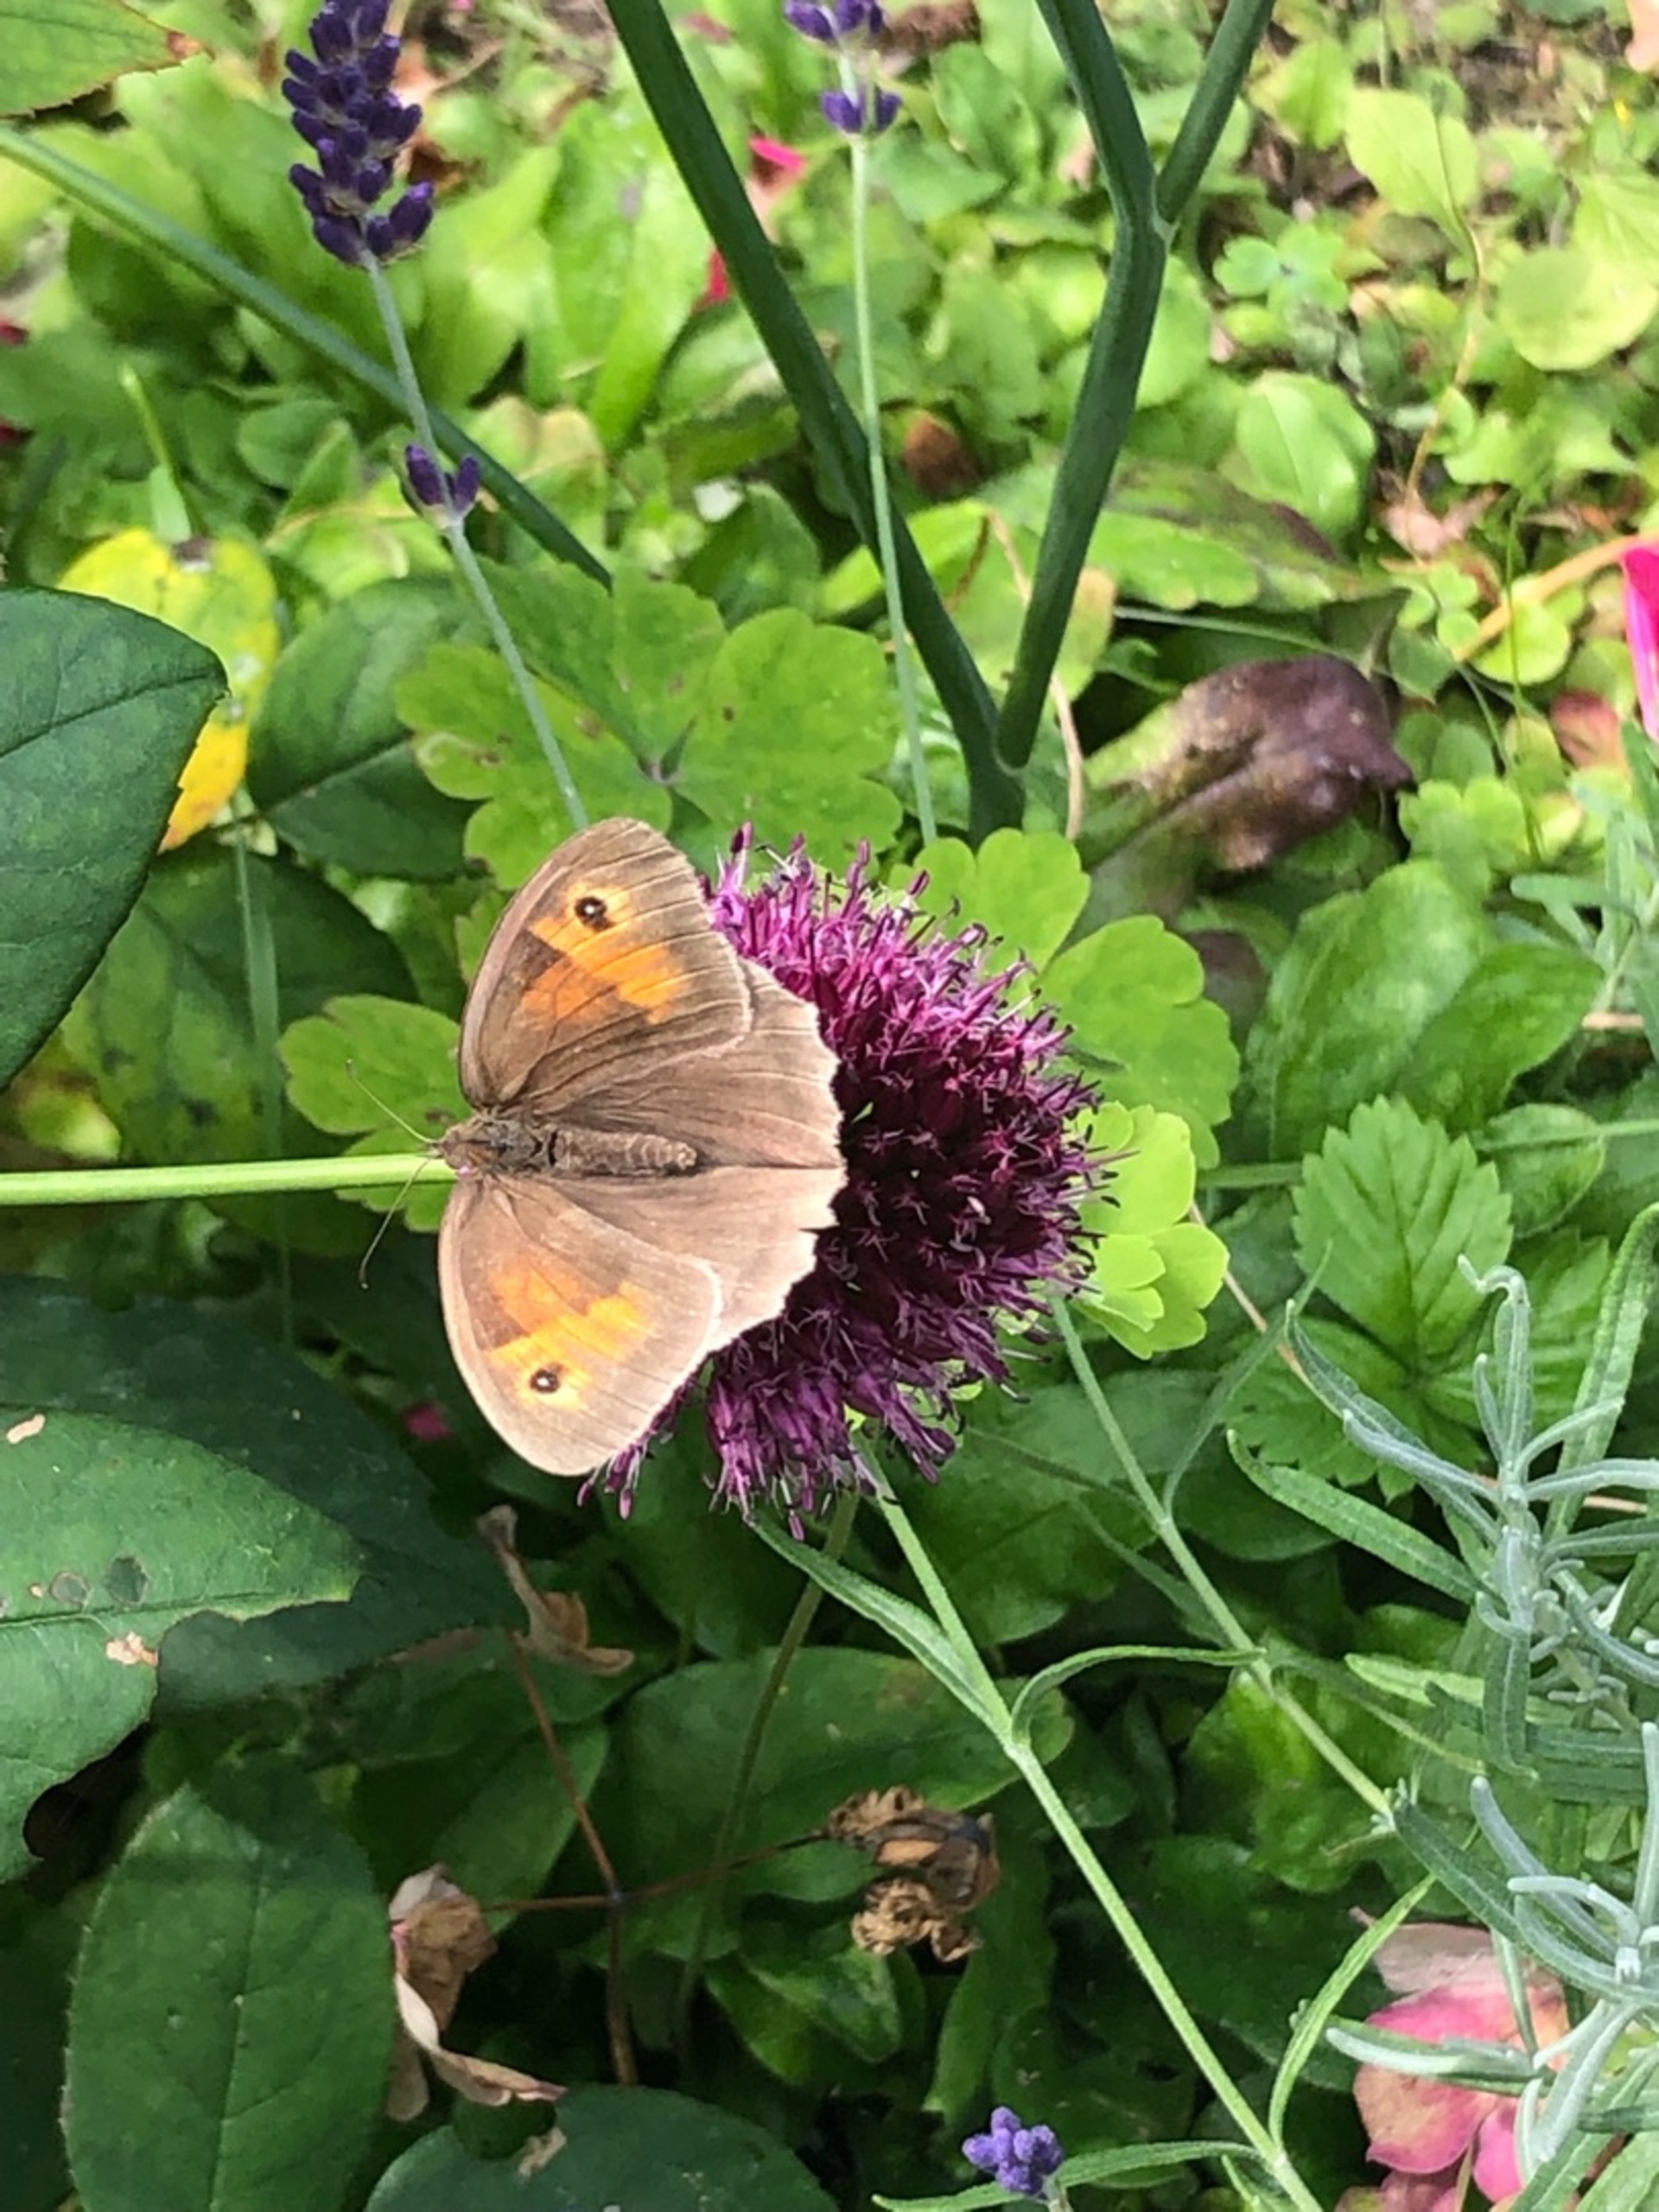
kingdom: Animalia
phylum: Arthropoda
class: Insecta
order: Lepidoptera
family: Nymphalidae
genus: Maniola
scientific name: Maniola jurtina
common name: Græsrandøje
